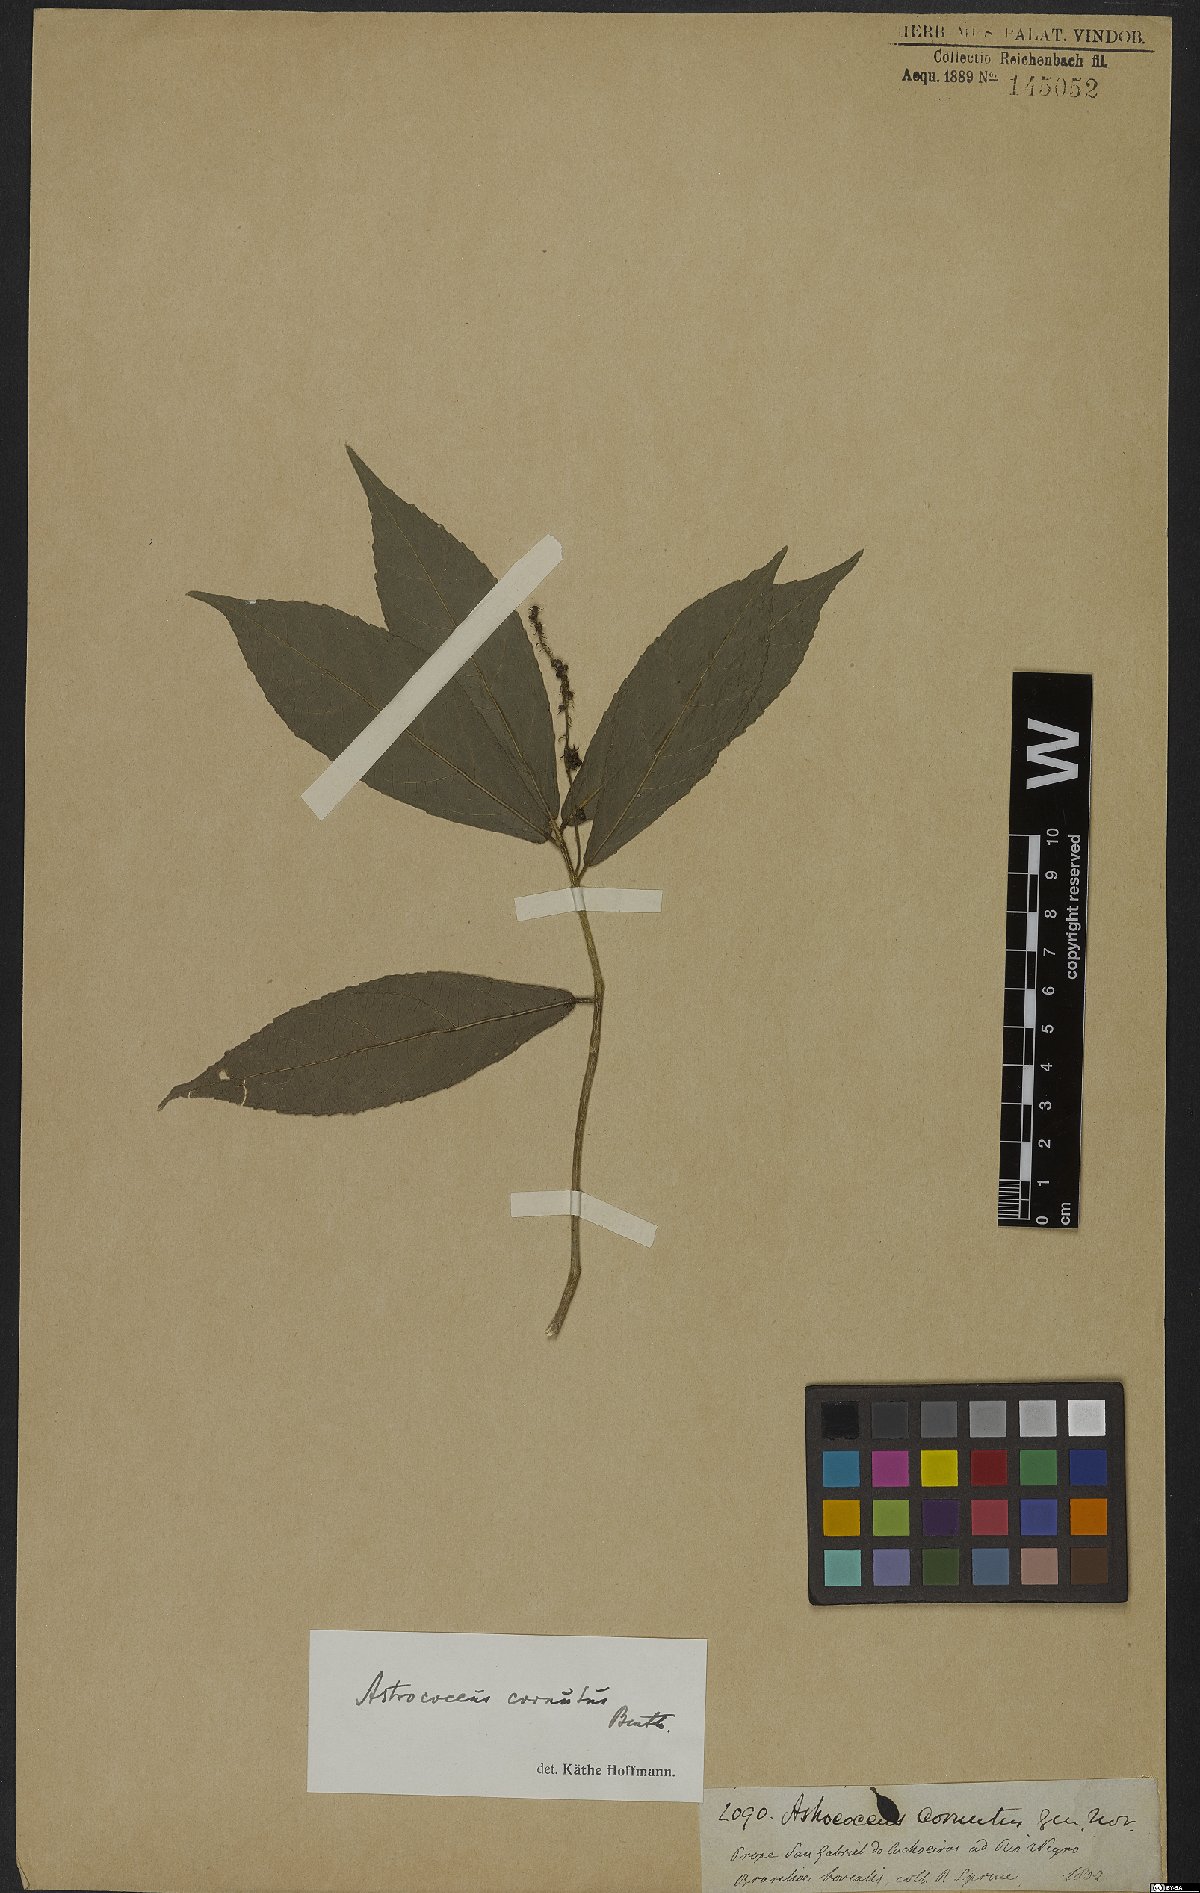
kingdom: Plantae
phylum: Tracheophyta
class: Magnoliopsida
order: Malpighiales
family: Euphorbiaceae
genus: Astrococcus
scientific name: Astrococcus cornutus
